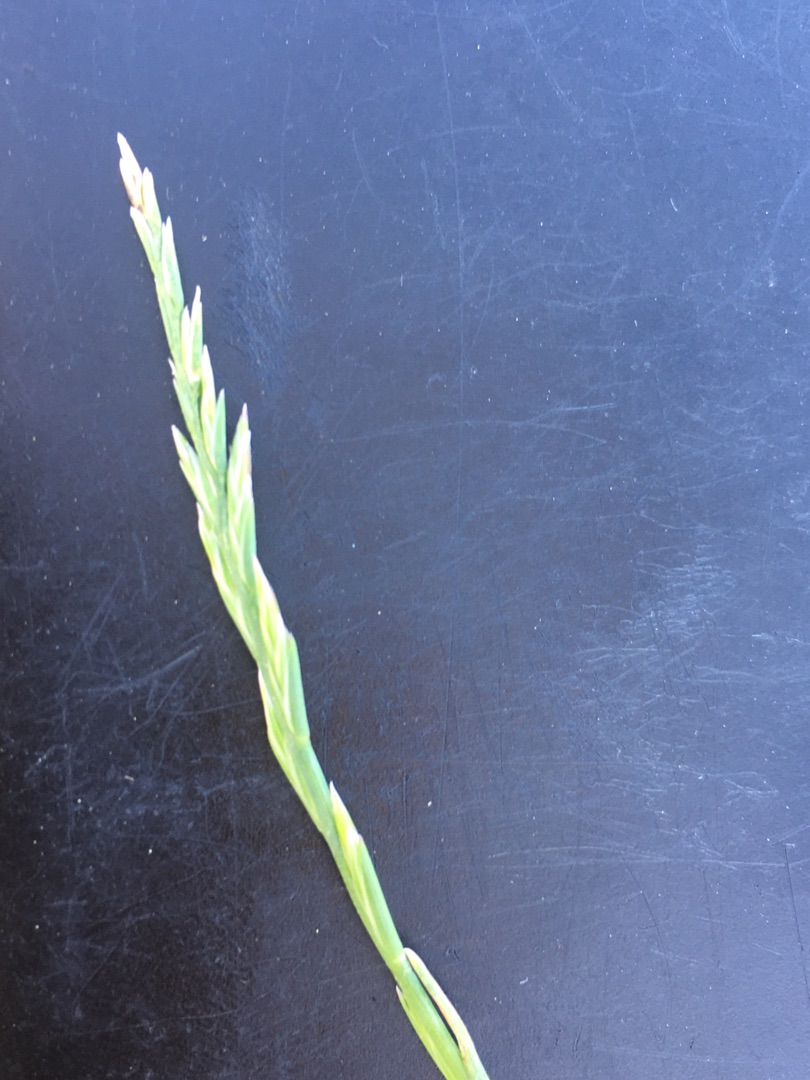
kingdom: Plantae
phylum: Tracheophyta
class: Liliopsida
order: Poales
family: Poaceae
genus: Lolium
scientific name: Lolium perenne
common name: Almindelig rajgræs
